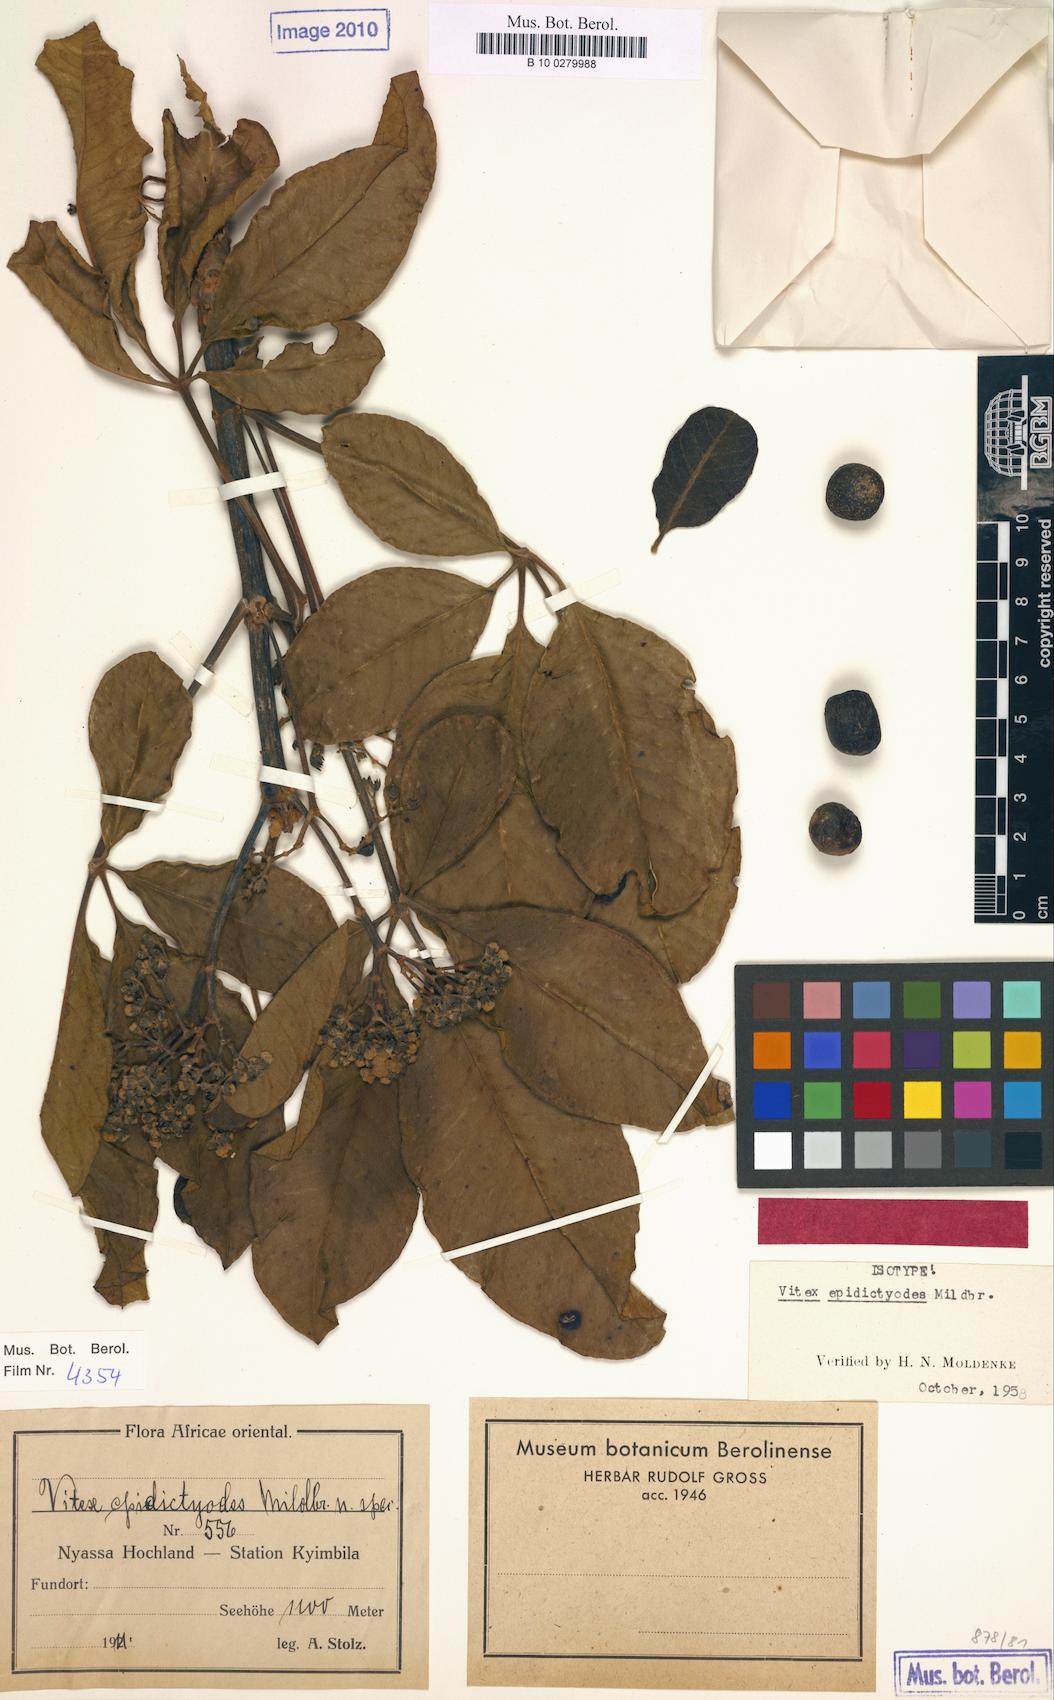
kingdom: Plantae
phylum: Tracheophyta
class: Magnoliopsida
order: Lamiales
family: Lamiaceae
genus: Vitex
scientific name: Vitex madiensis
